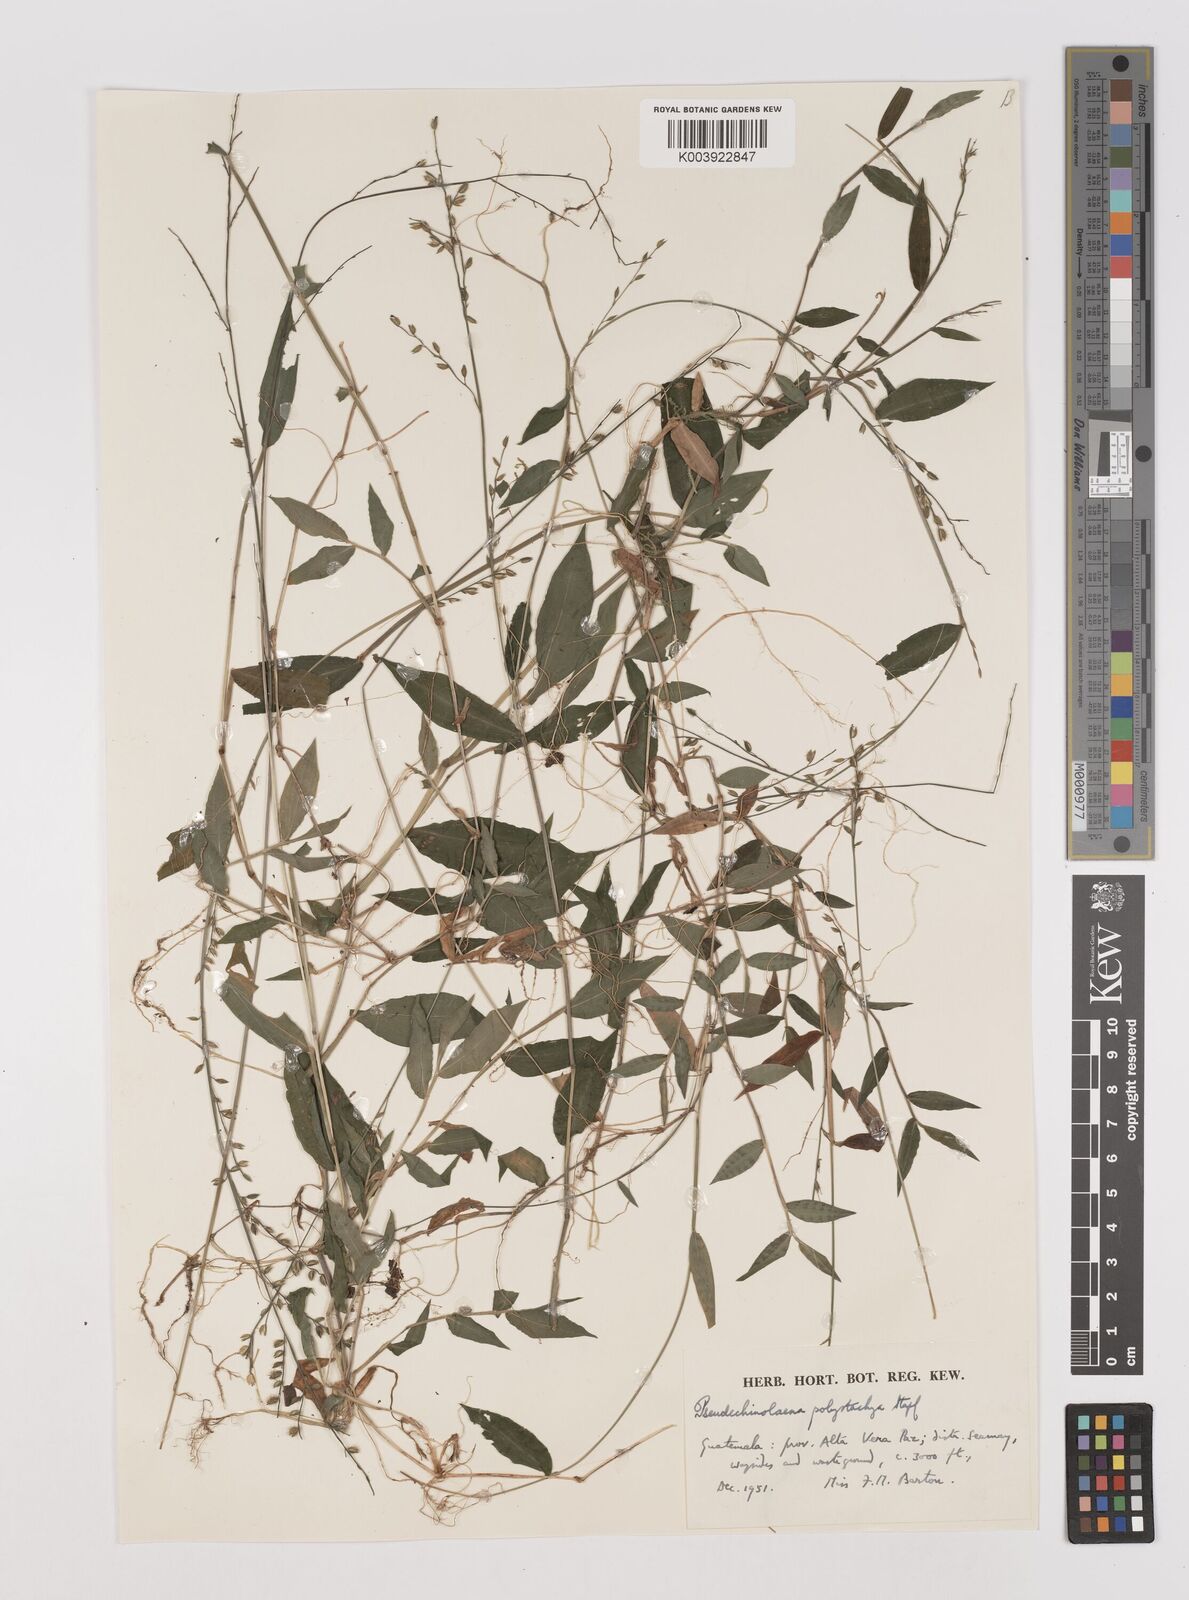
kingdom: Plantae
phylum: Tracheophyta
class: Liliopsida
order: Poales
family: Poaceae
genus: Pseudechinolaena
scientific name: Pseudechinolaena polystachya
